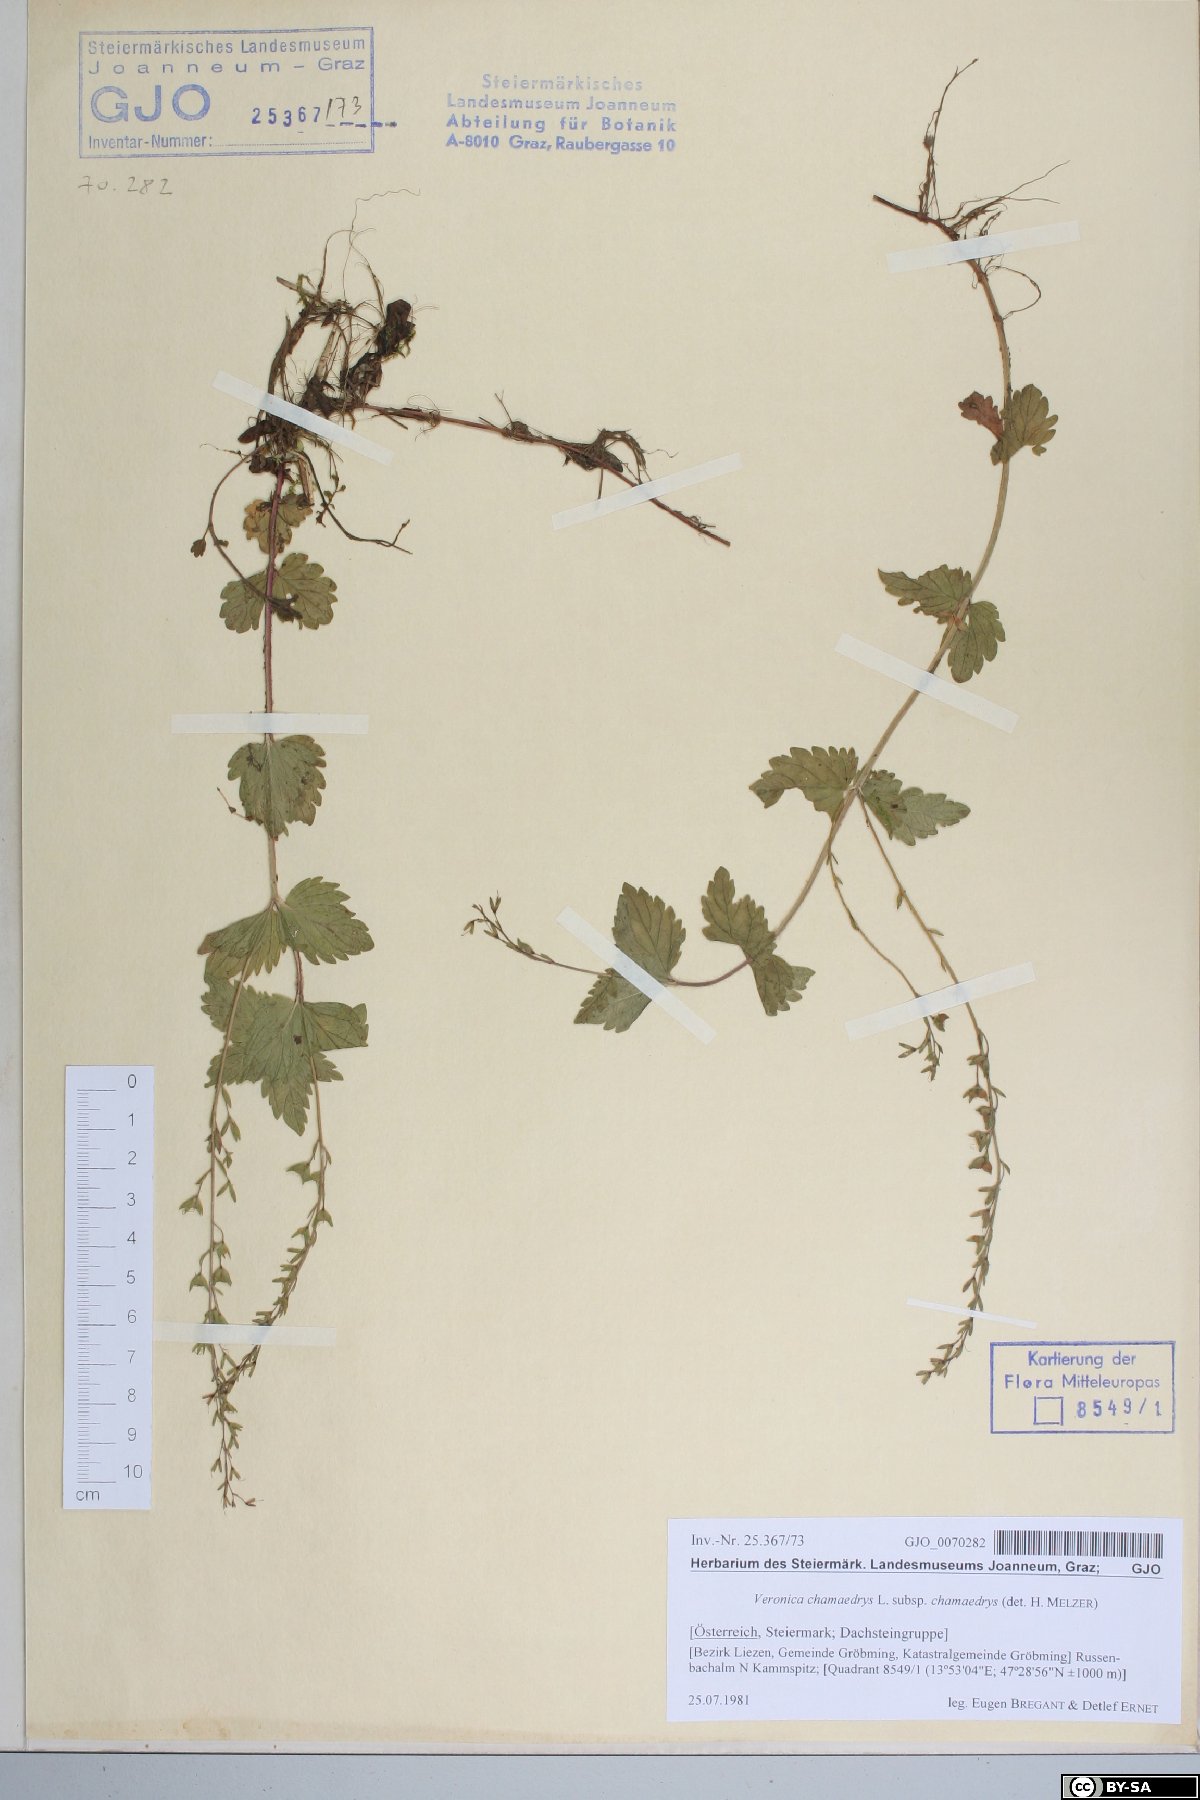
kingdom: Plantae
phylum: Tracheophyta
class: Magnoliopsida
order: Lamiales
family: Plantaginaceae
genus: Veronica
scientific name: Veronica chamaedrys
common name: Germander speedwell
